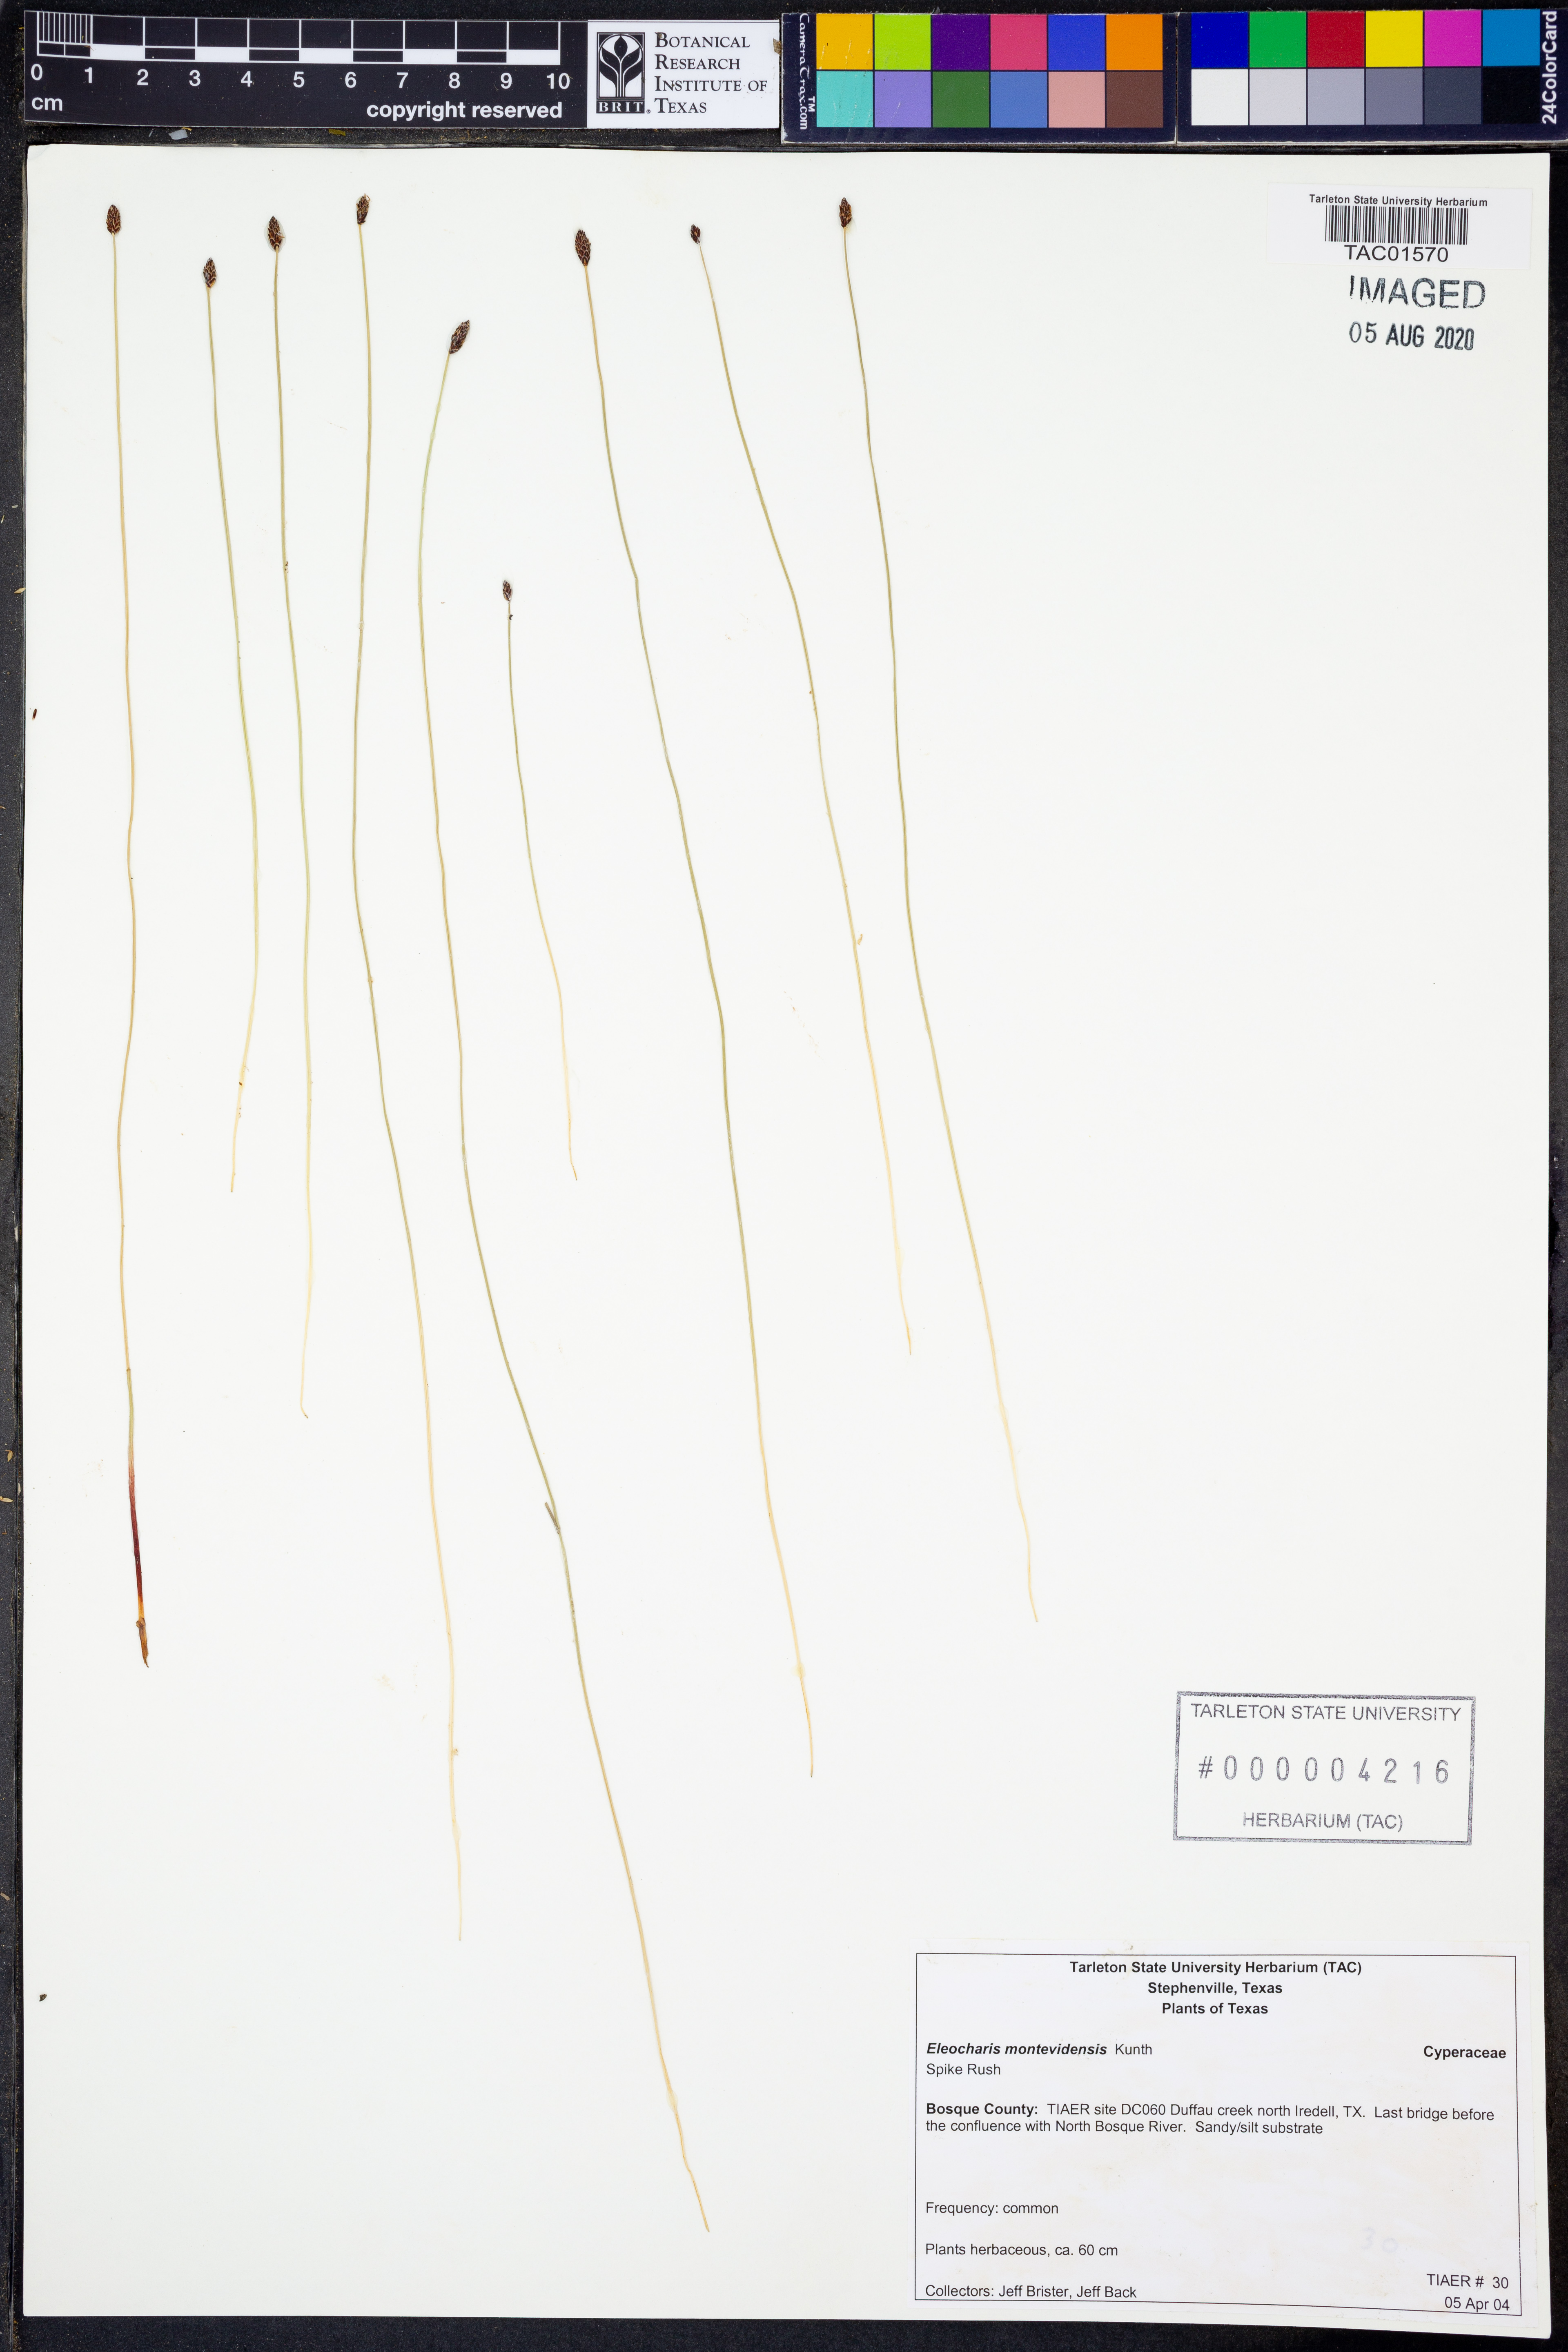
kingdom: Plantae
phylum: Tracheophyta
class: Liliopsida
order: Poales
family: Cyperaceae
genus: Eleocharis
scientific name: Eleocharis montevidensis
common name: Sand spike-rush
